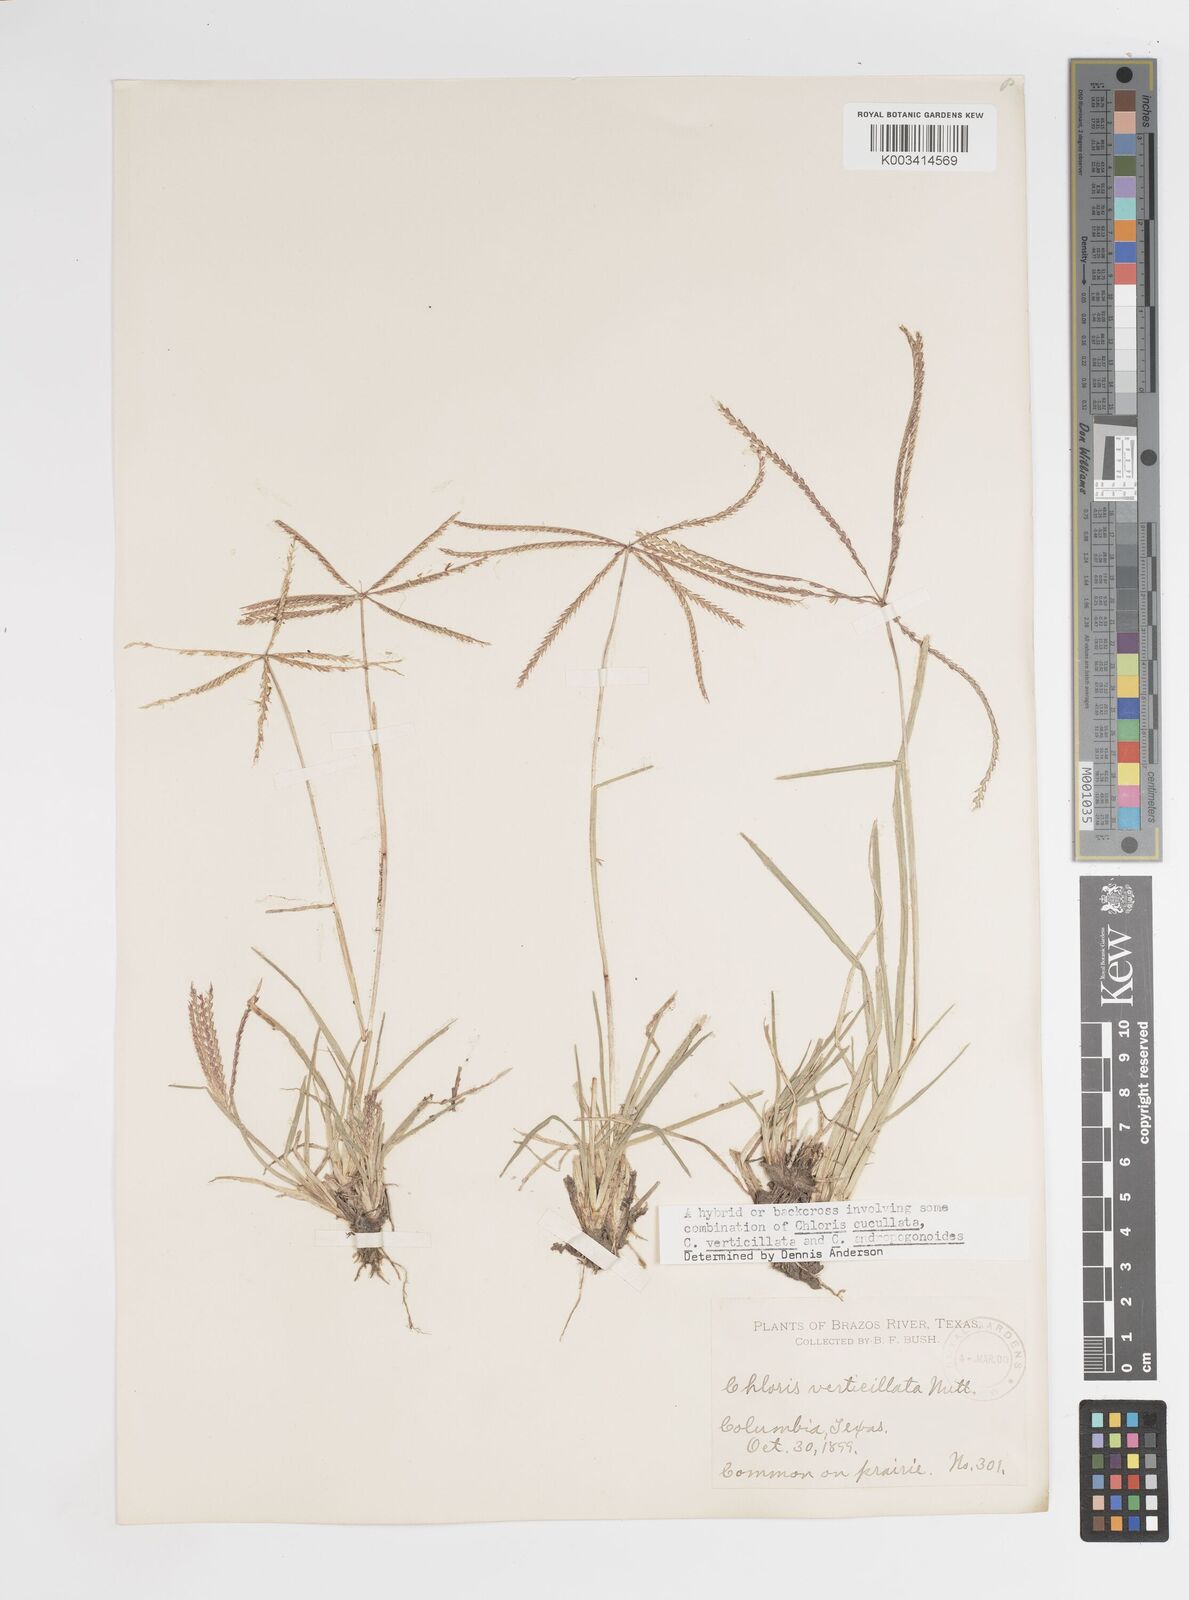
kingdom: Plantae
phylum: Tracheophyta
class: Liliopsida
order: Poales
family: Poaceae
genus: Chloris
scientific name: Chloris verticillata
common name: Tumble windmill grass
